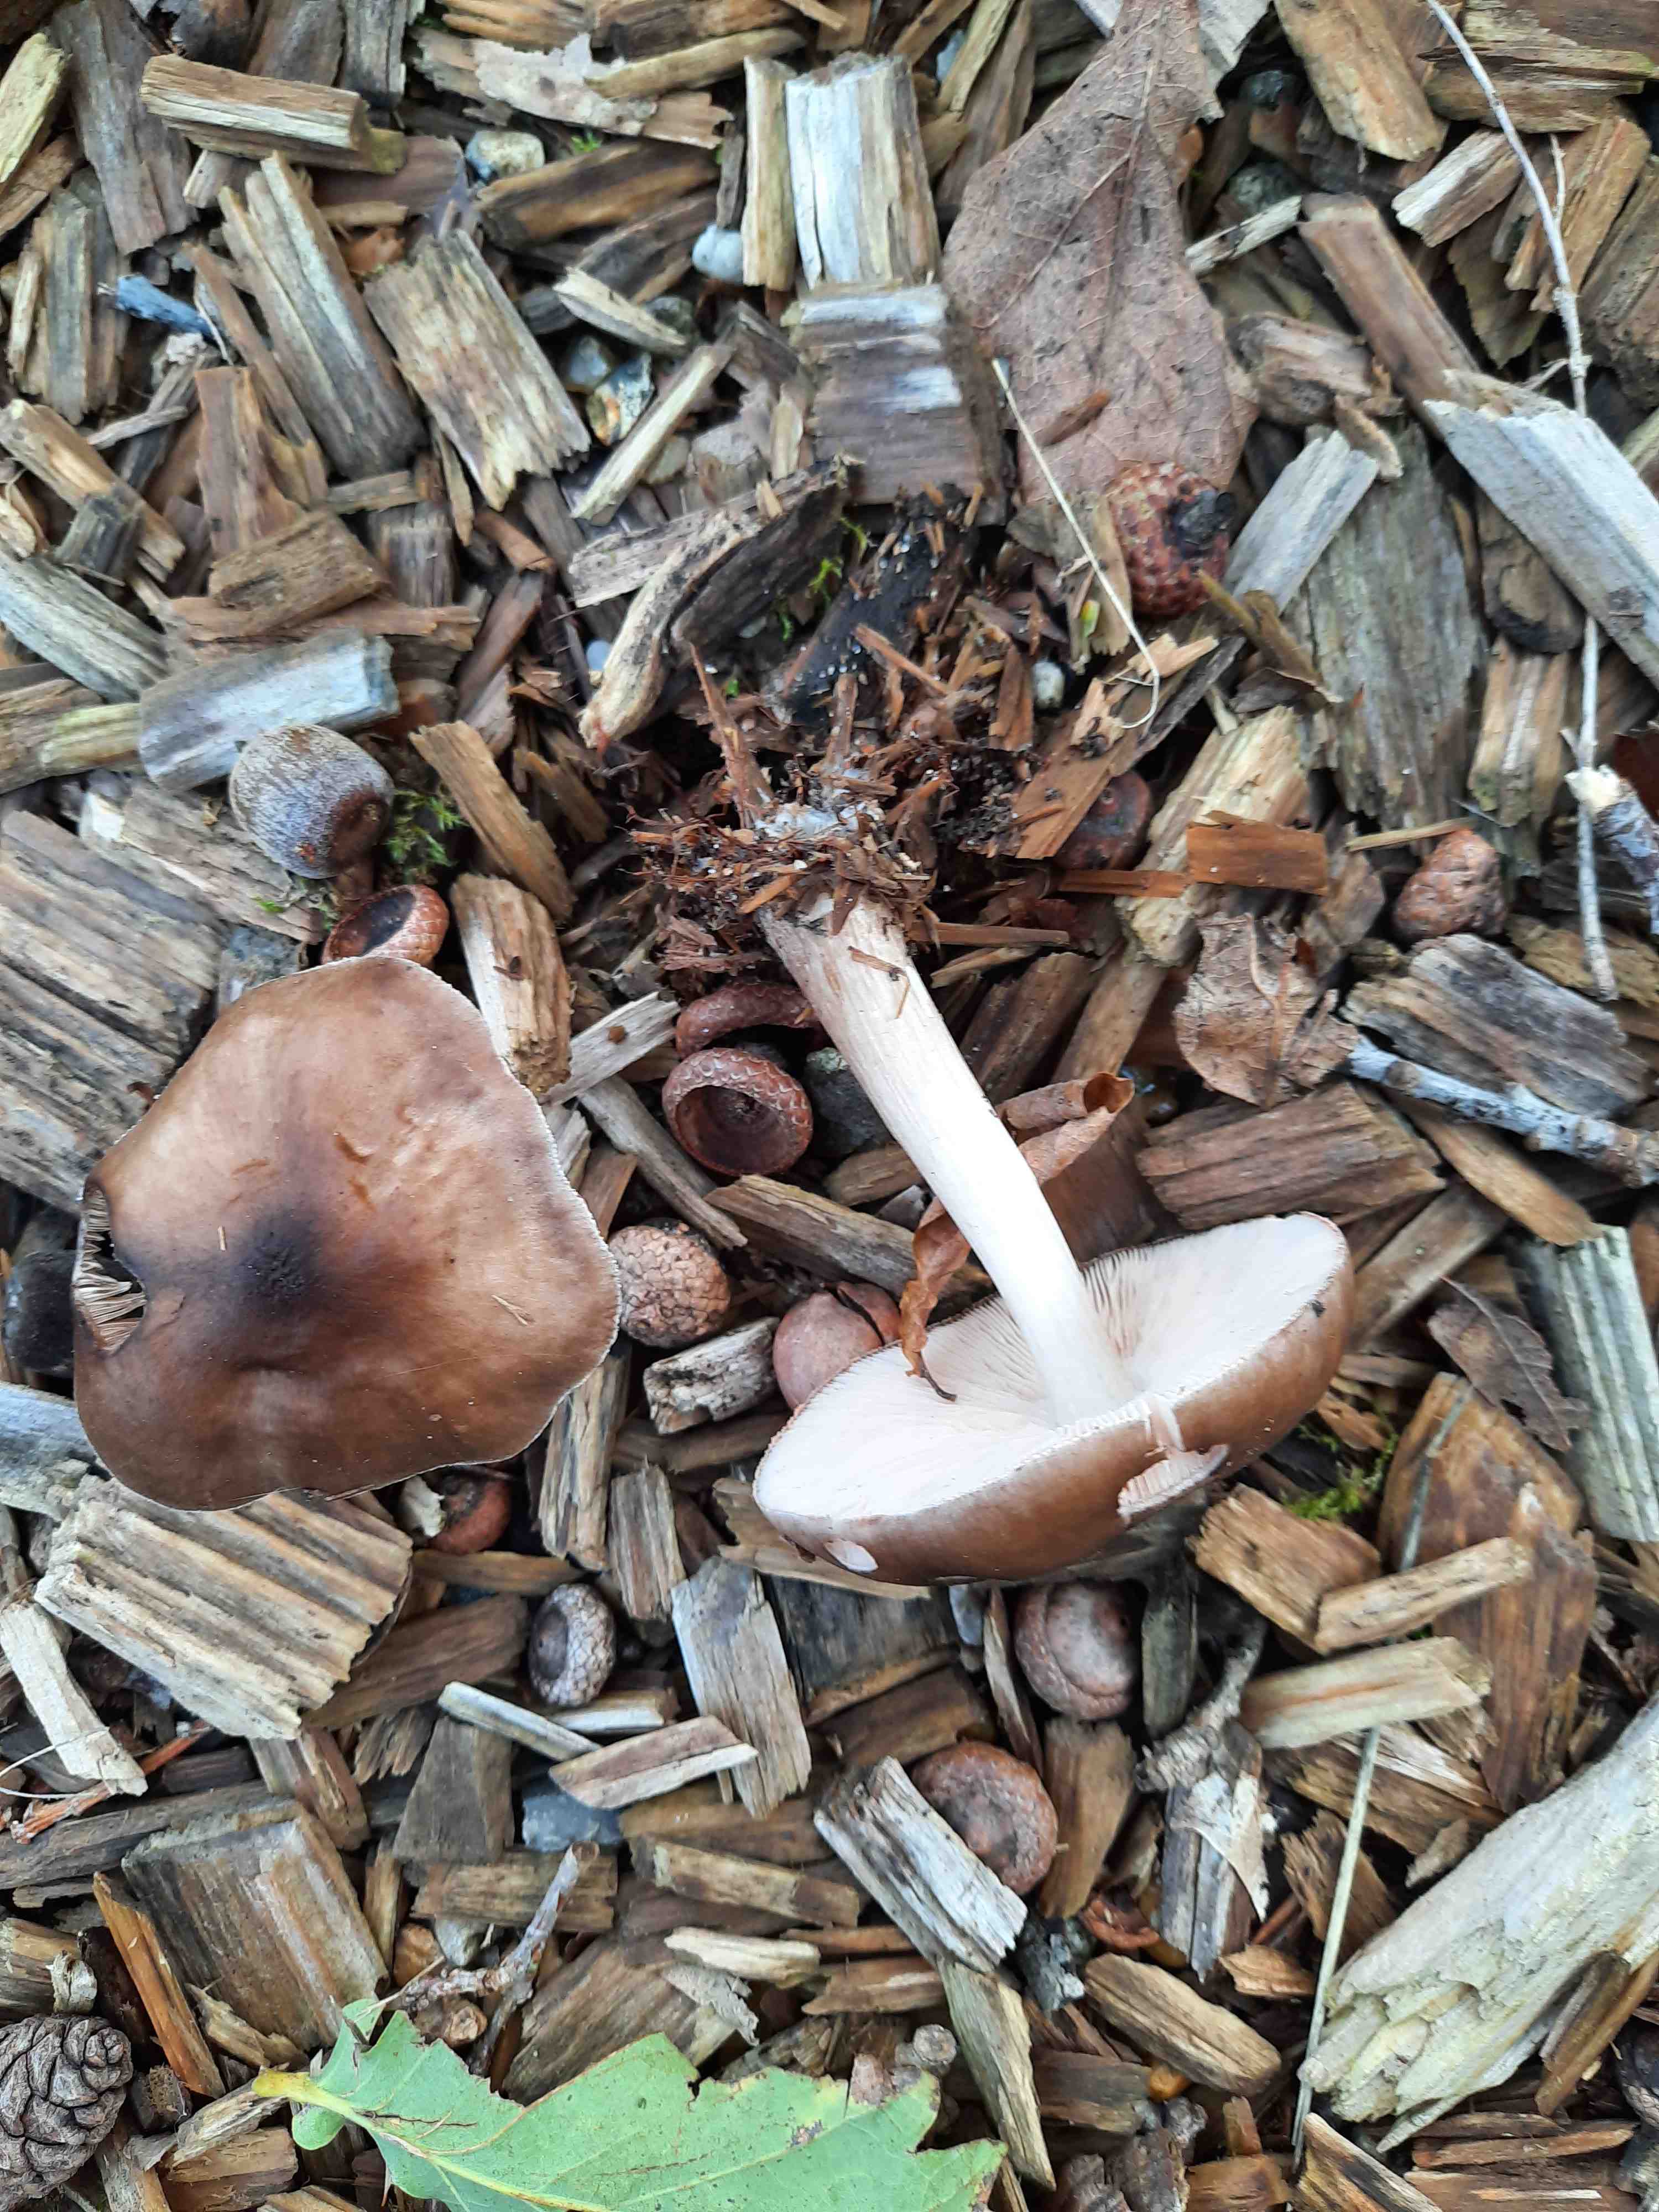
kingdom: Fungi
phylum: Basidiomycota
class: Agaricomycetes
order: Agaricales
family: Pluteaceae
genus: Pluteus
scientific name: Pluteus cervinus
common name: sodfarvet skærmhat
